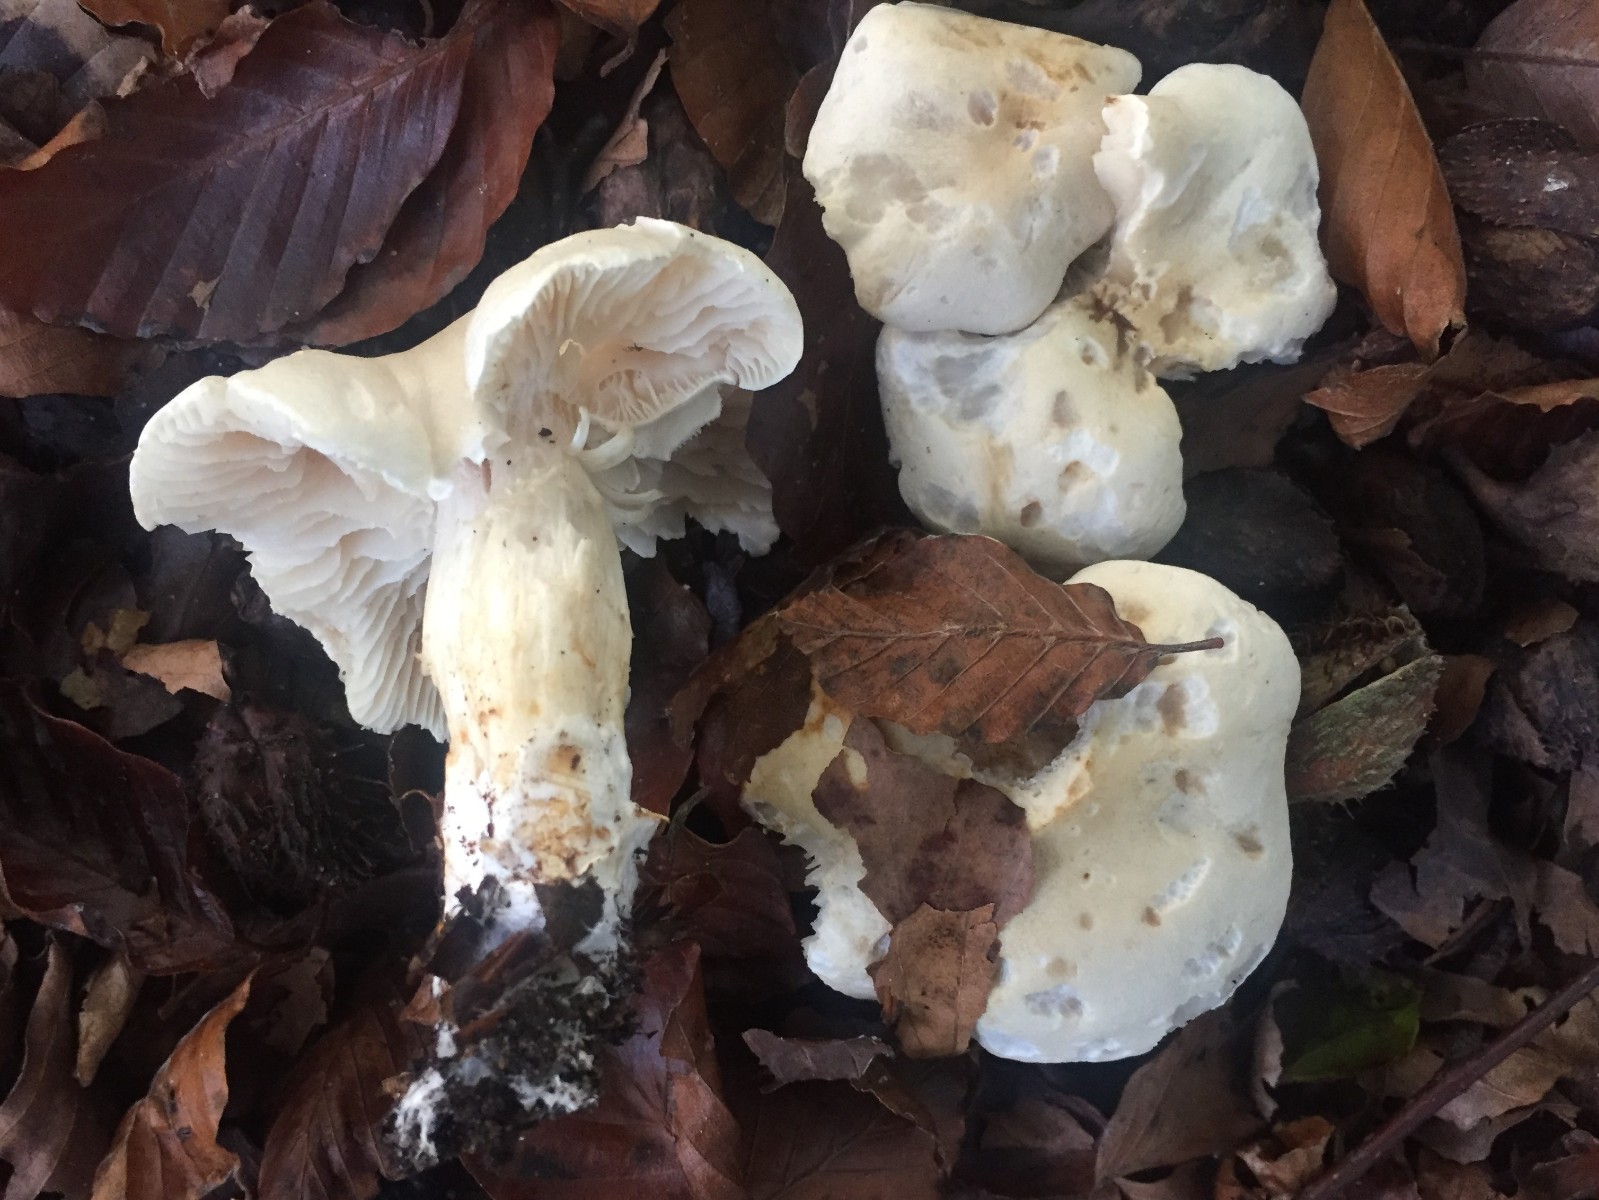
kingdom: Fungi
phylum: Basidiomycota
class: Agaricomycetes
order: Agaricales
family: Tricholomataceae
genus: Tricholoma
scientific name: Tricholoma lascivum
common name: stinkende ridderhat
